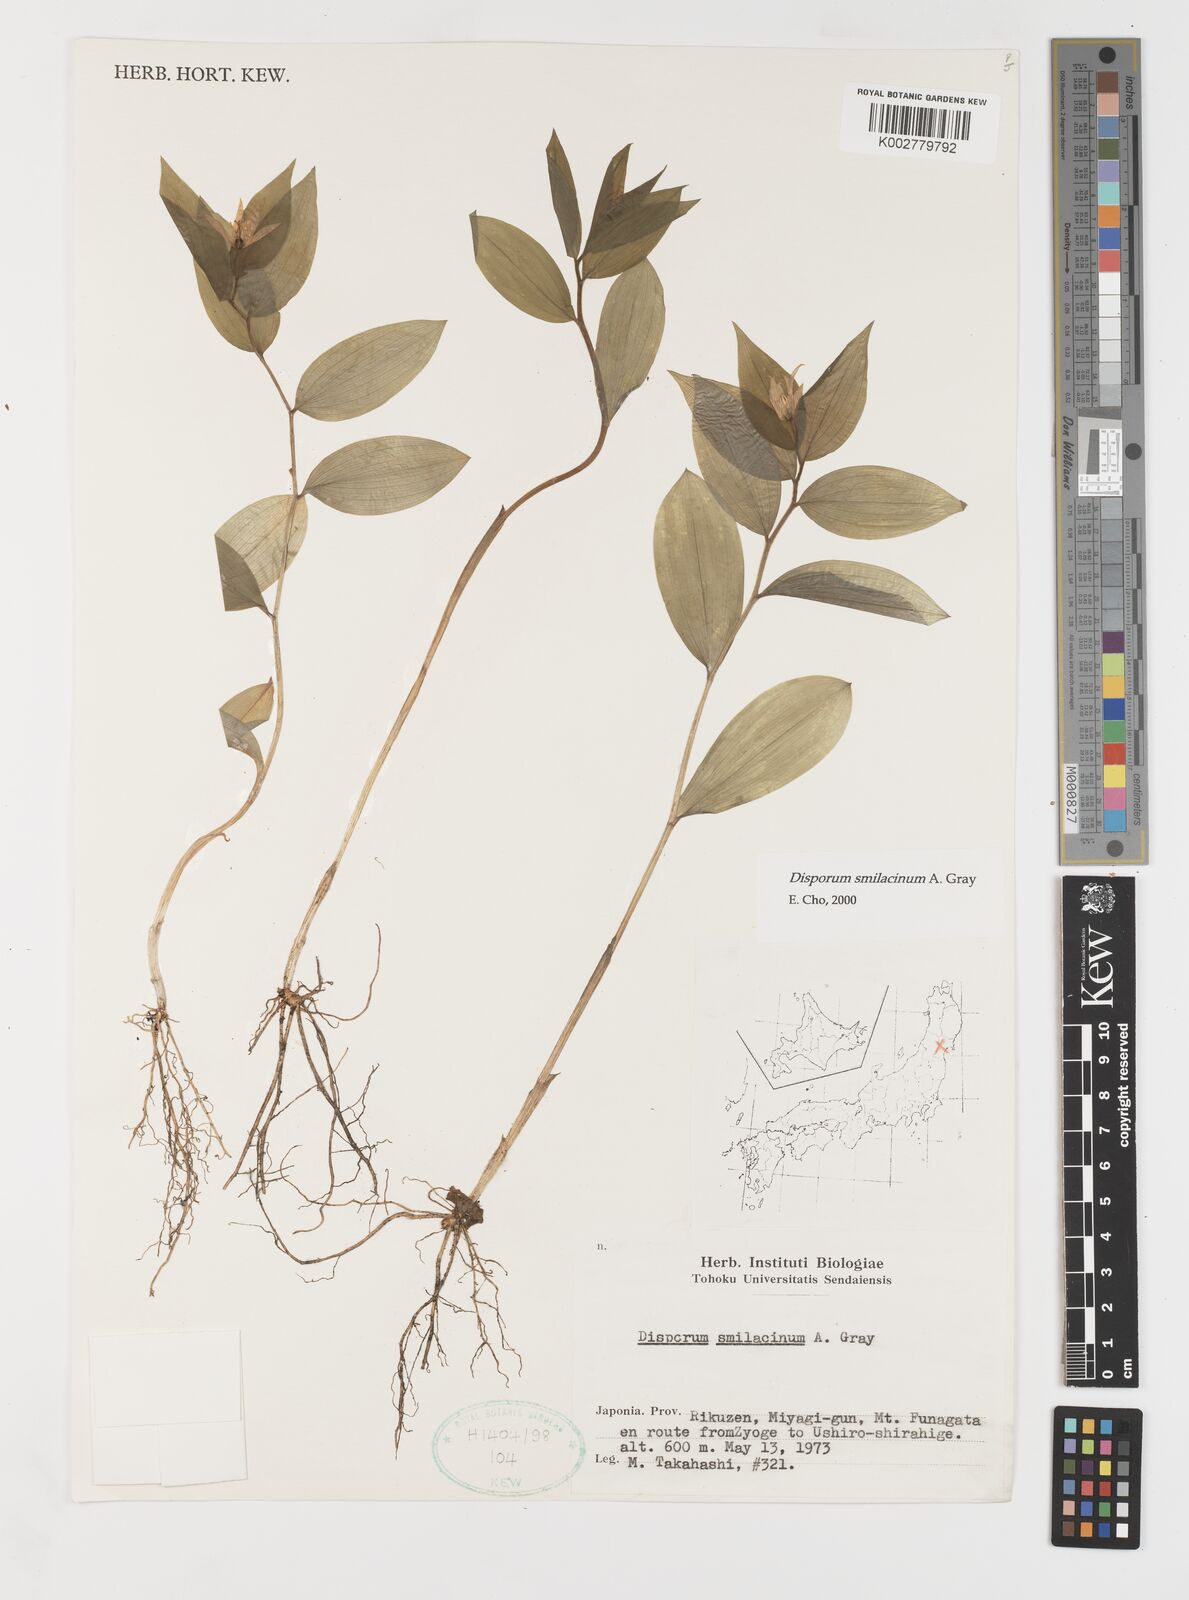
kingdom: Plantae
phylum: Tracheophyta
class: Liliopsida
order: Liliales
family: Colchicaceae
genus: Disporum
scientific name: Disporum smilacinum
